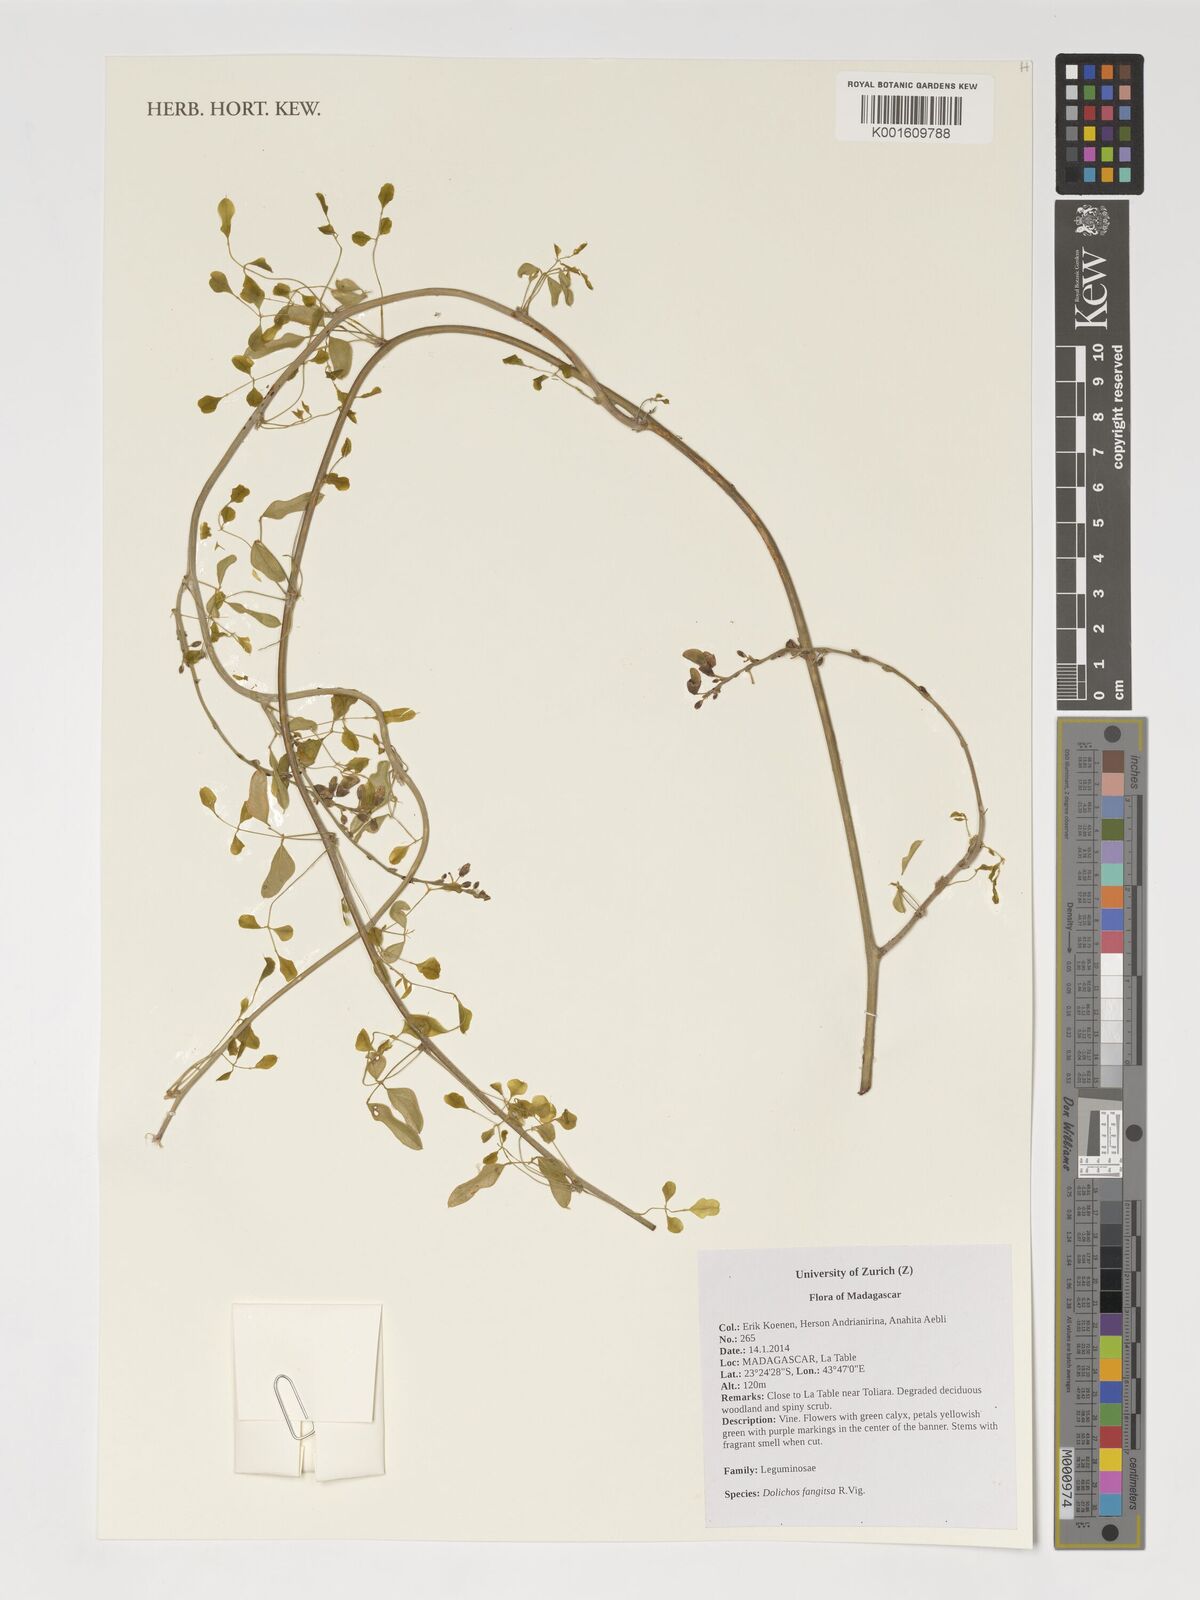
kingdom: Plantae
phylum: Tracheophyta
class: Magnoliopsida
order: Fabales
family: Fabaceae
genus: Dolichos
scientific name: Dolichos fangitsa
